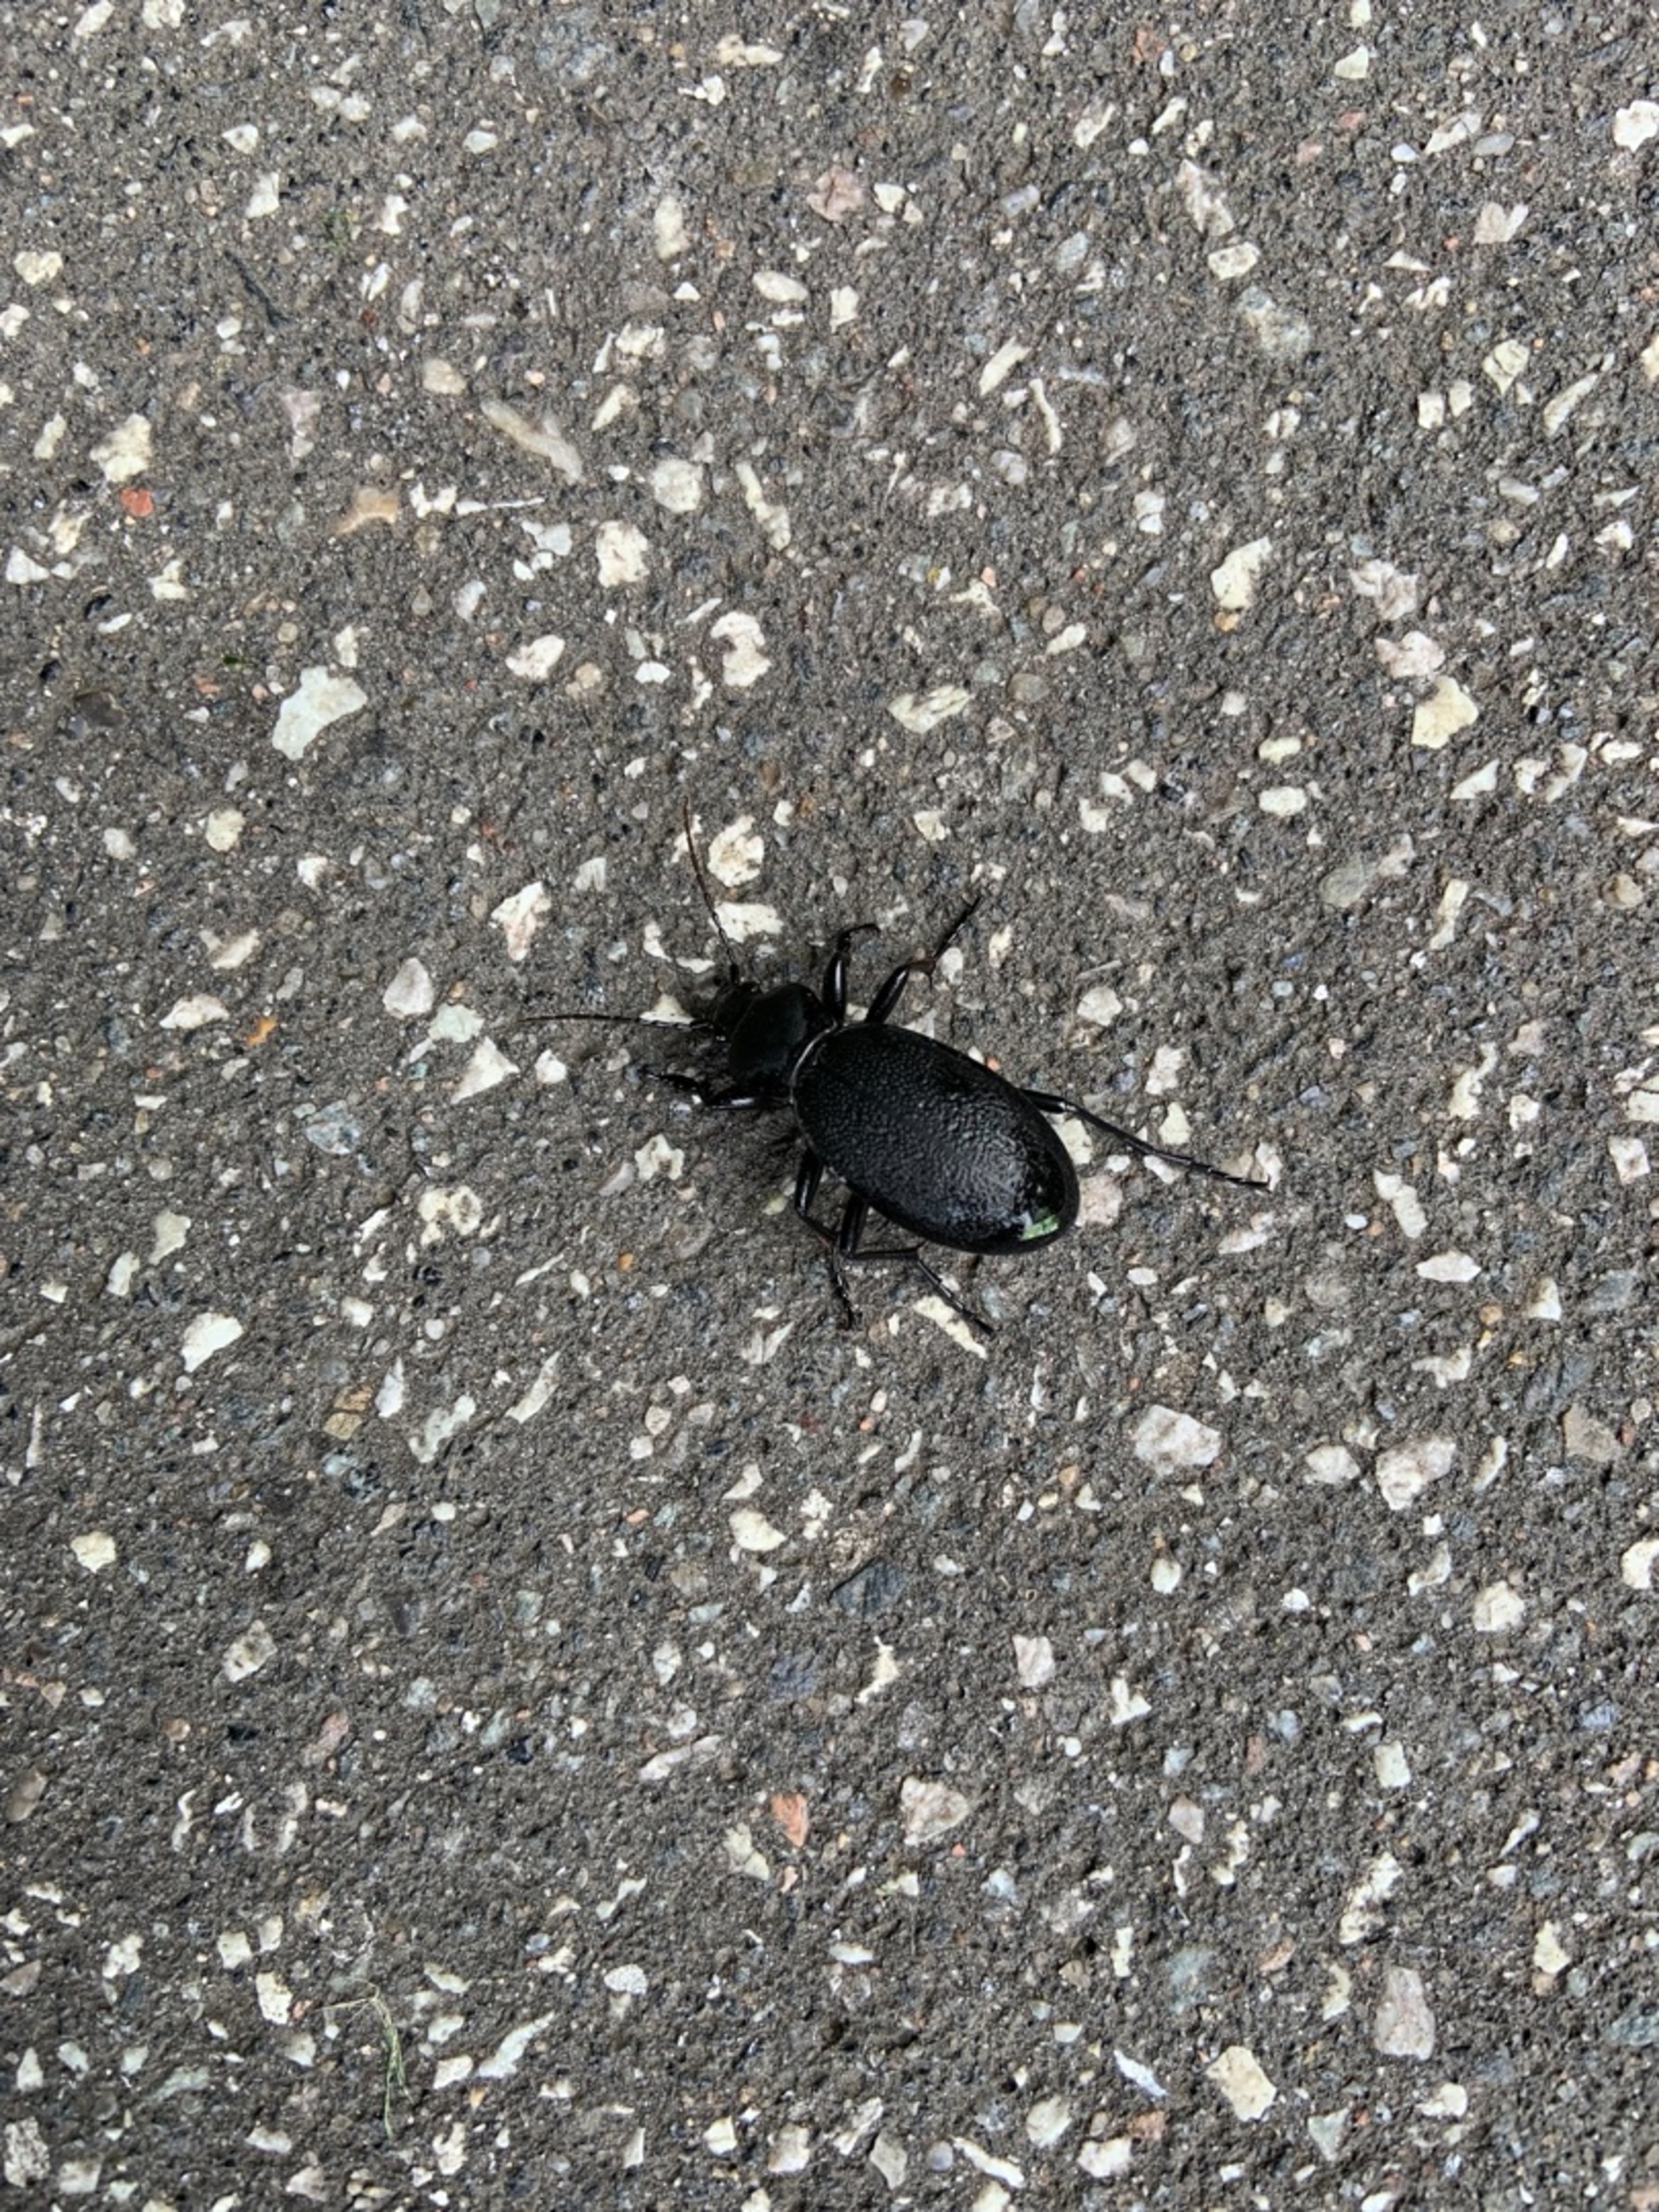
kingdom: Animalia
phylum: Arthropoda
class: Insecta
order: Coleoptera
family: Carabidae
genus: Carabus
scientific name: Carabus coriaceus
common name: Læderløber
